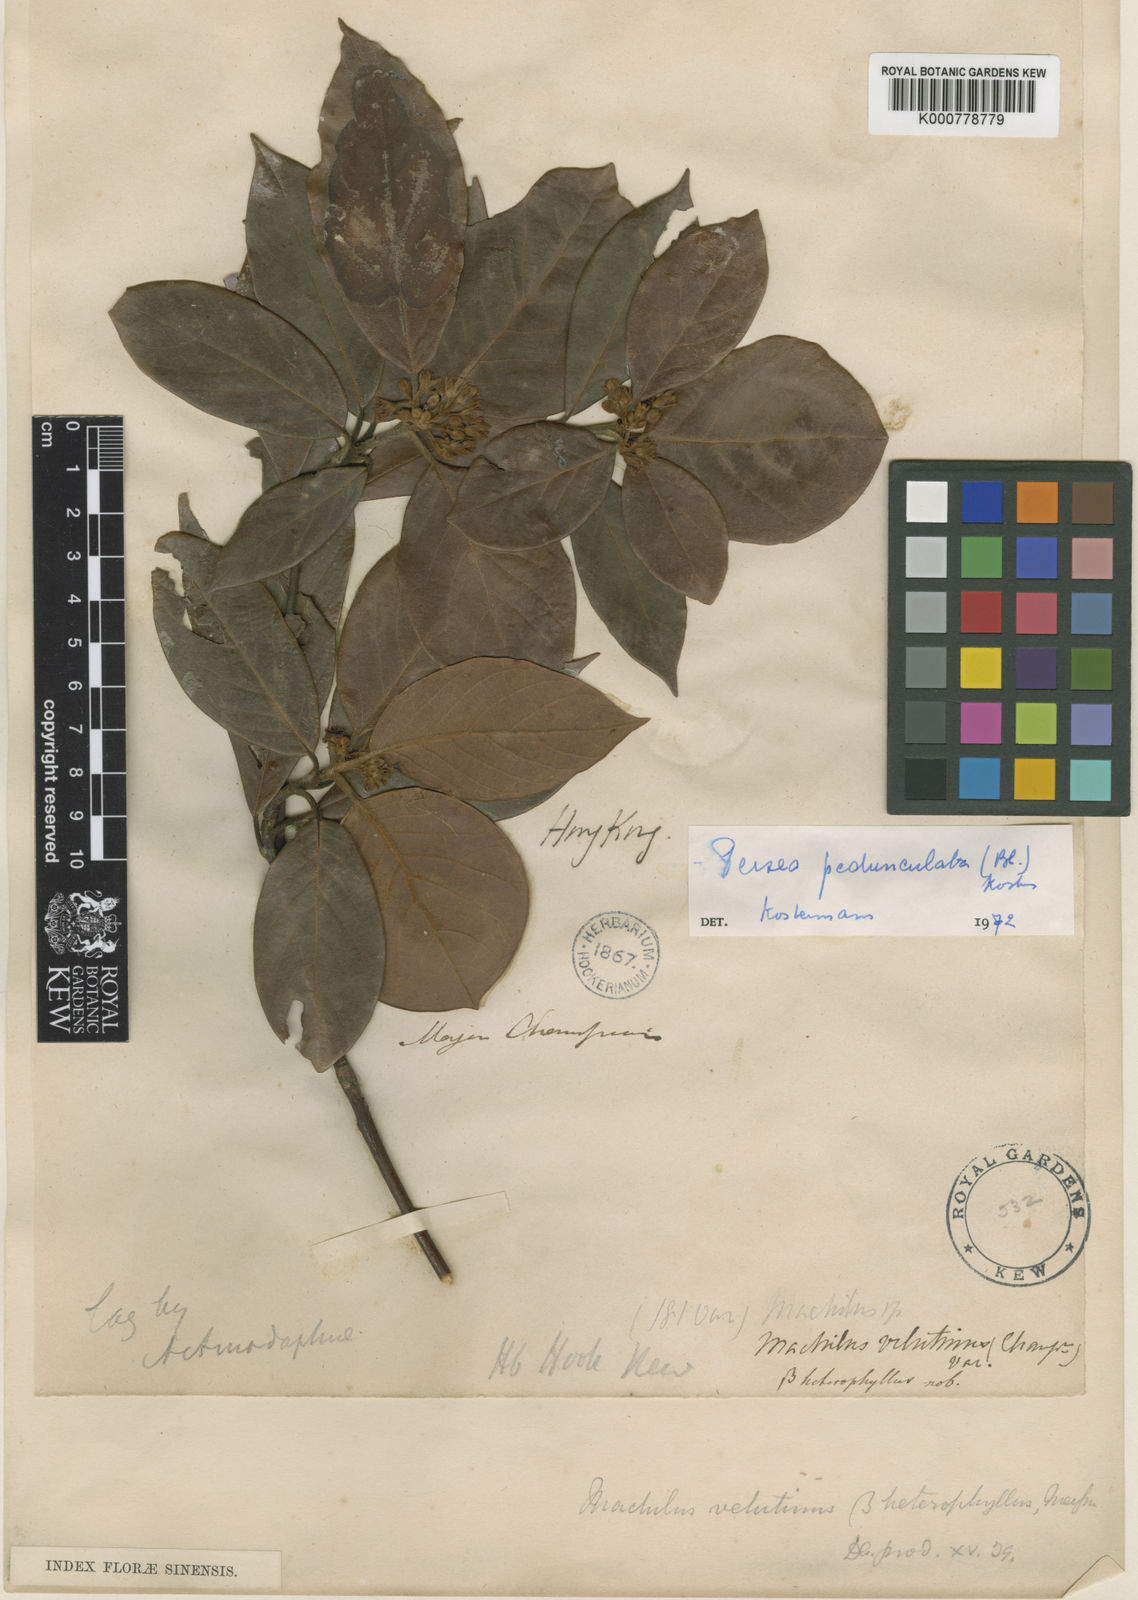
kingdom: Plantae
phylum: Tracheophyta
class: Magnoliopsida
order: Laurales
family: Lauraceae
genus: Actinodaphne
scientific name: Actinodaphne pedunculata
